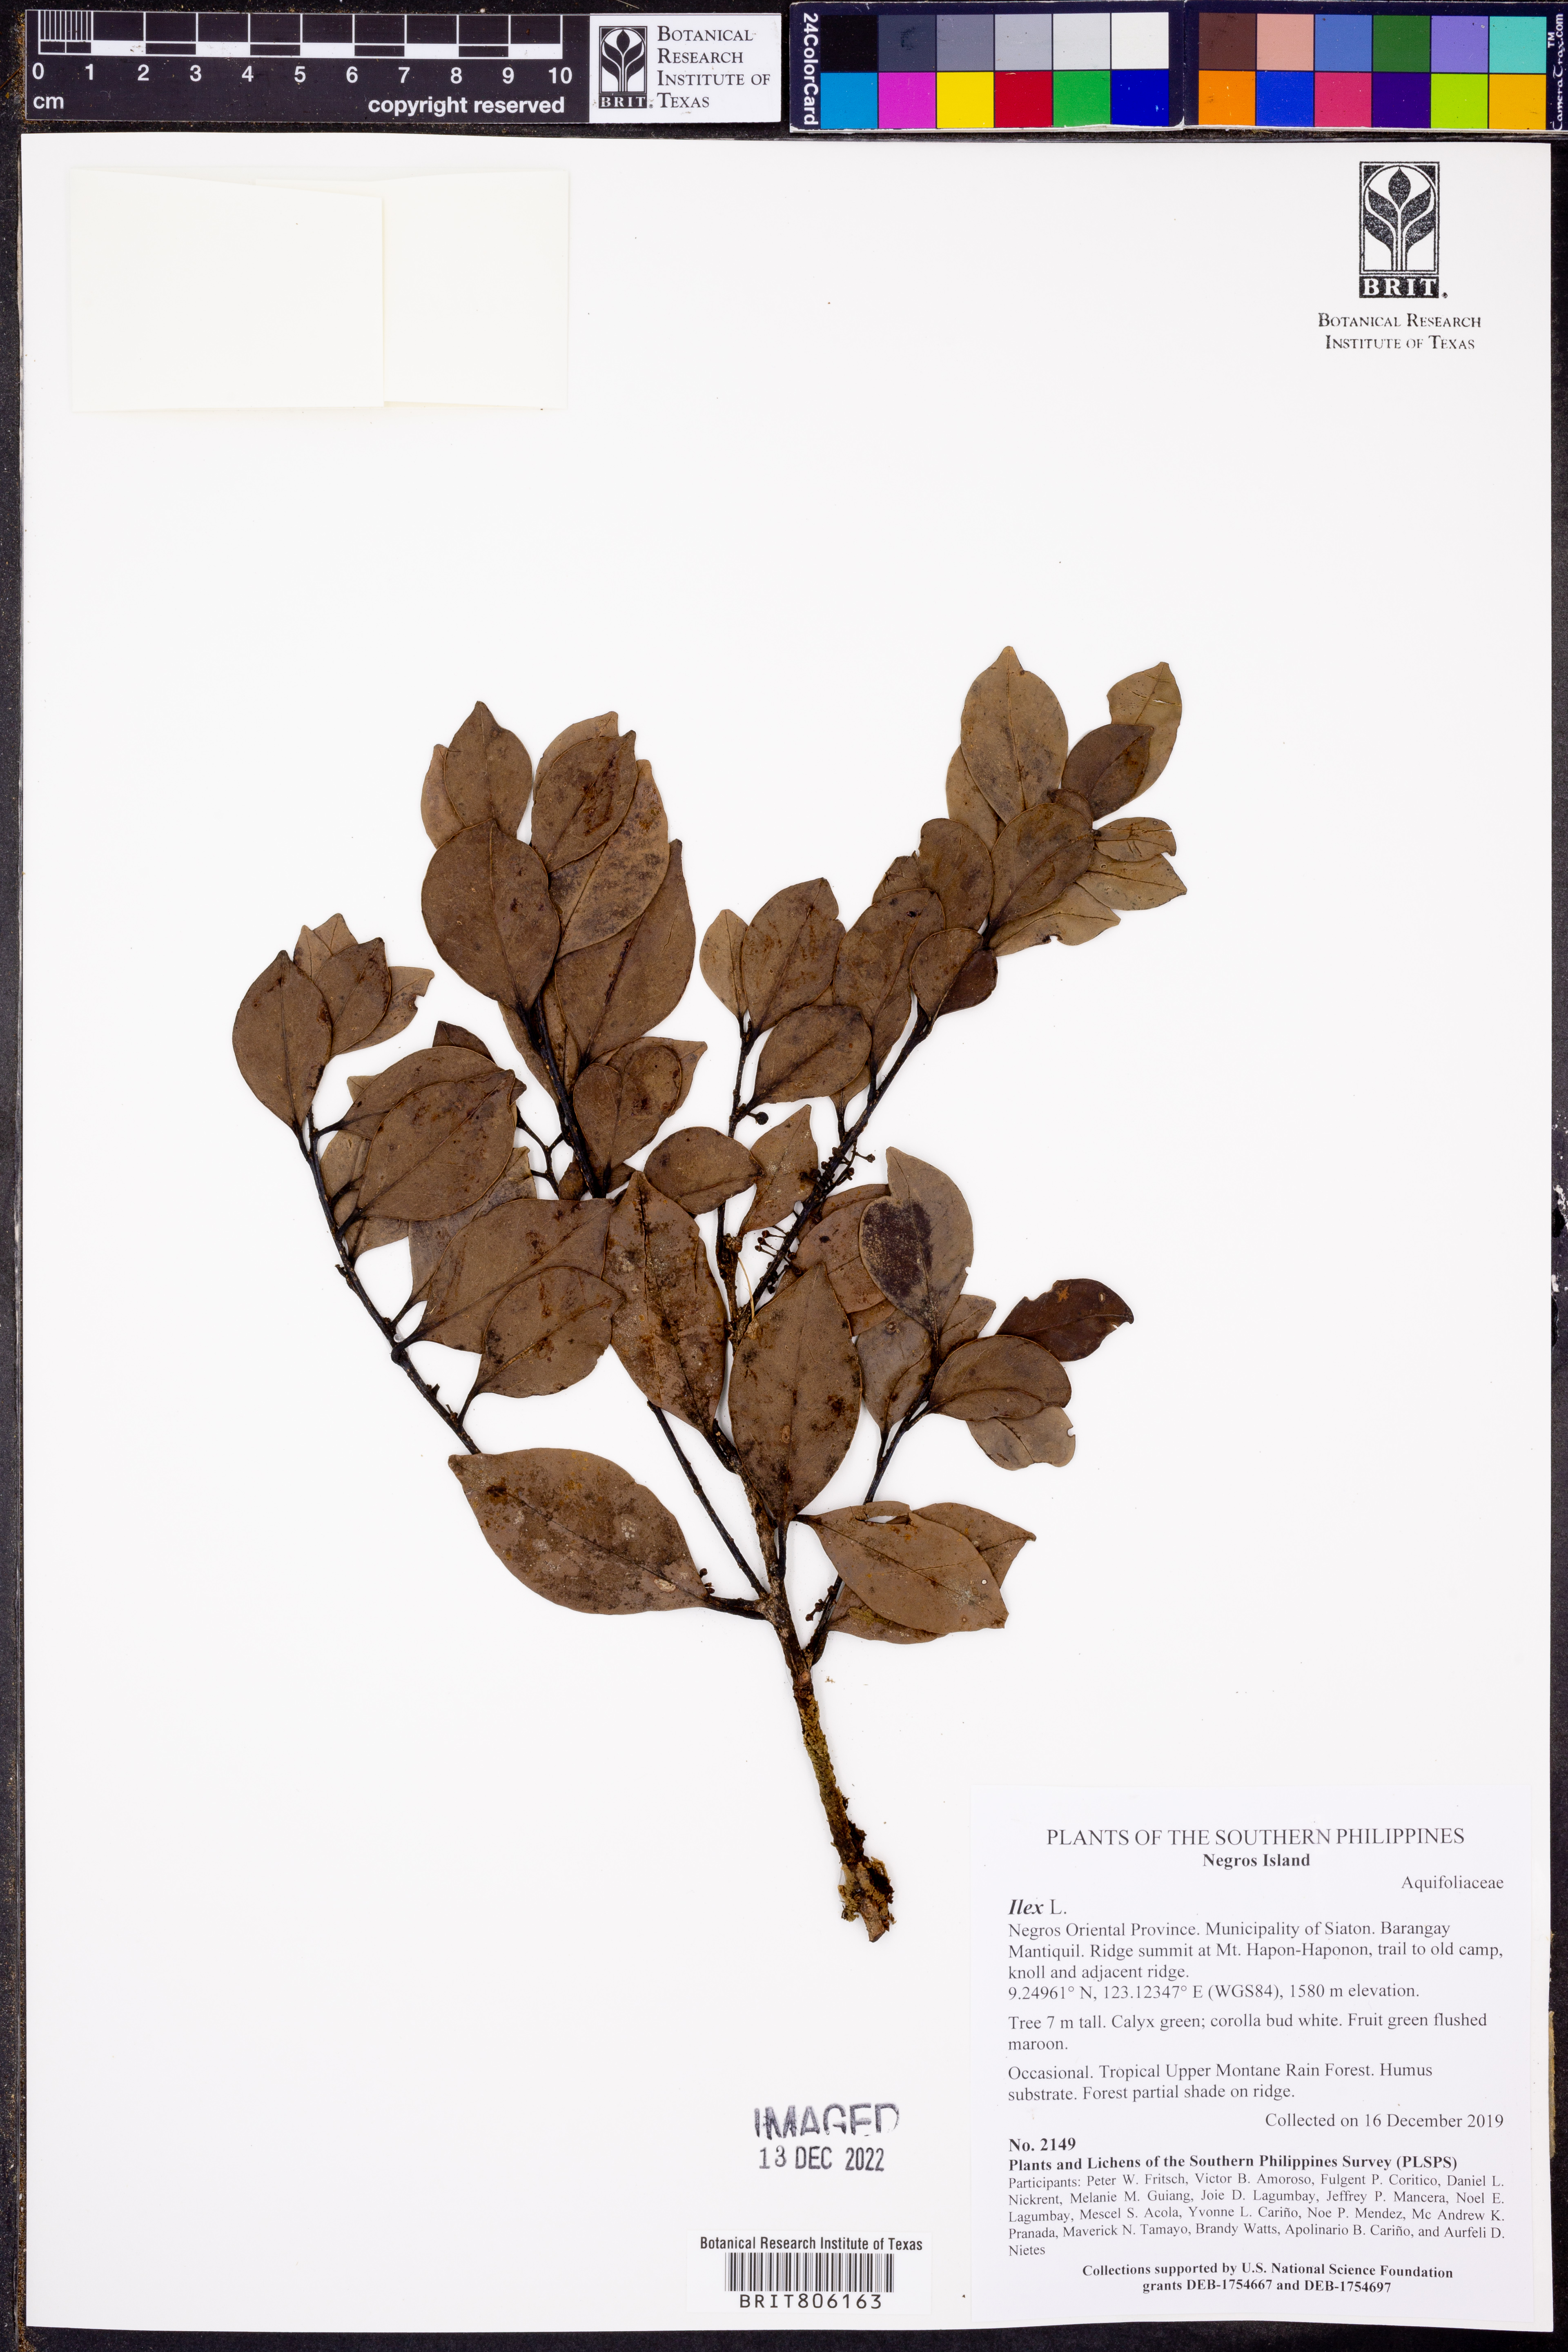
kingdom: Plantae
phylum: Tracheophyta
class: Magnoliopsida
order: Aquifoliales
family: Aquifoliaceae
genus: Ilex
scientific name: Ilex
